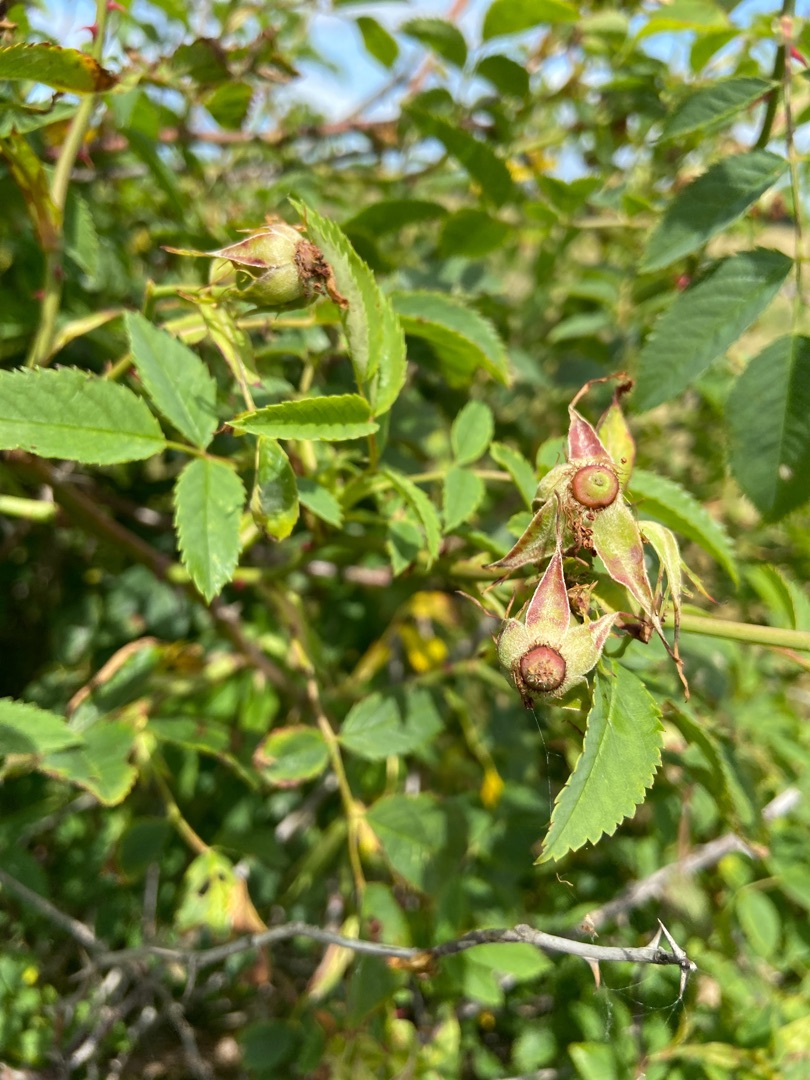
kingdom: Plantae
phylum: Tracheophyta
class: Magnoliopsida
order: Rosales
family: Rosaceae
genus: Rosa
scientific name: Rosa canina
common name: Glat hunde-rose
